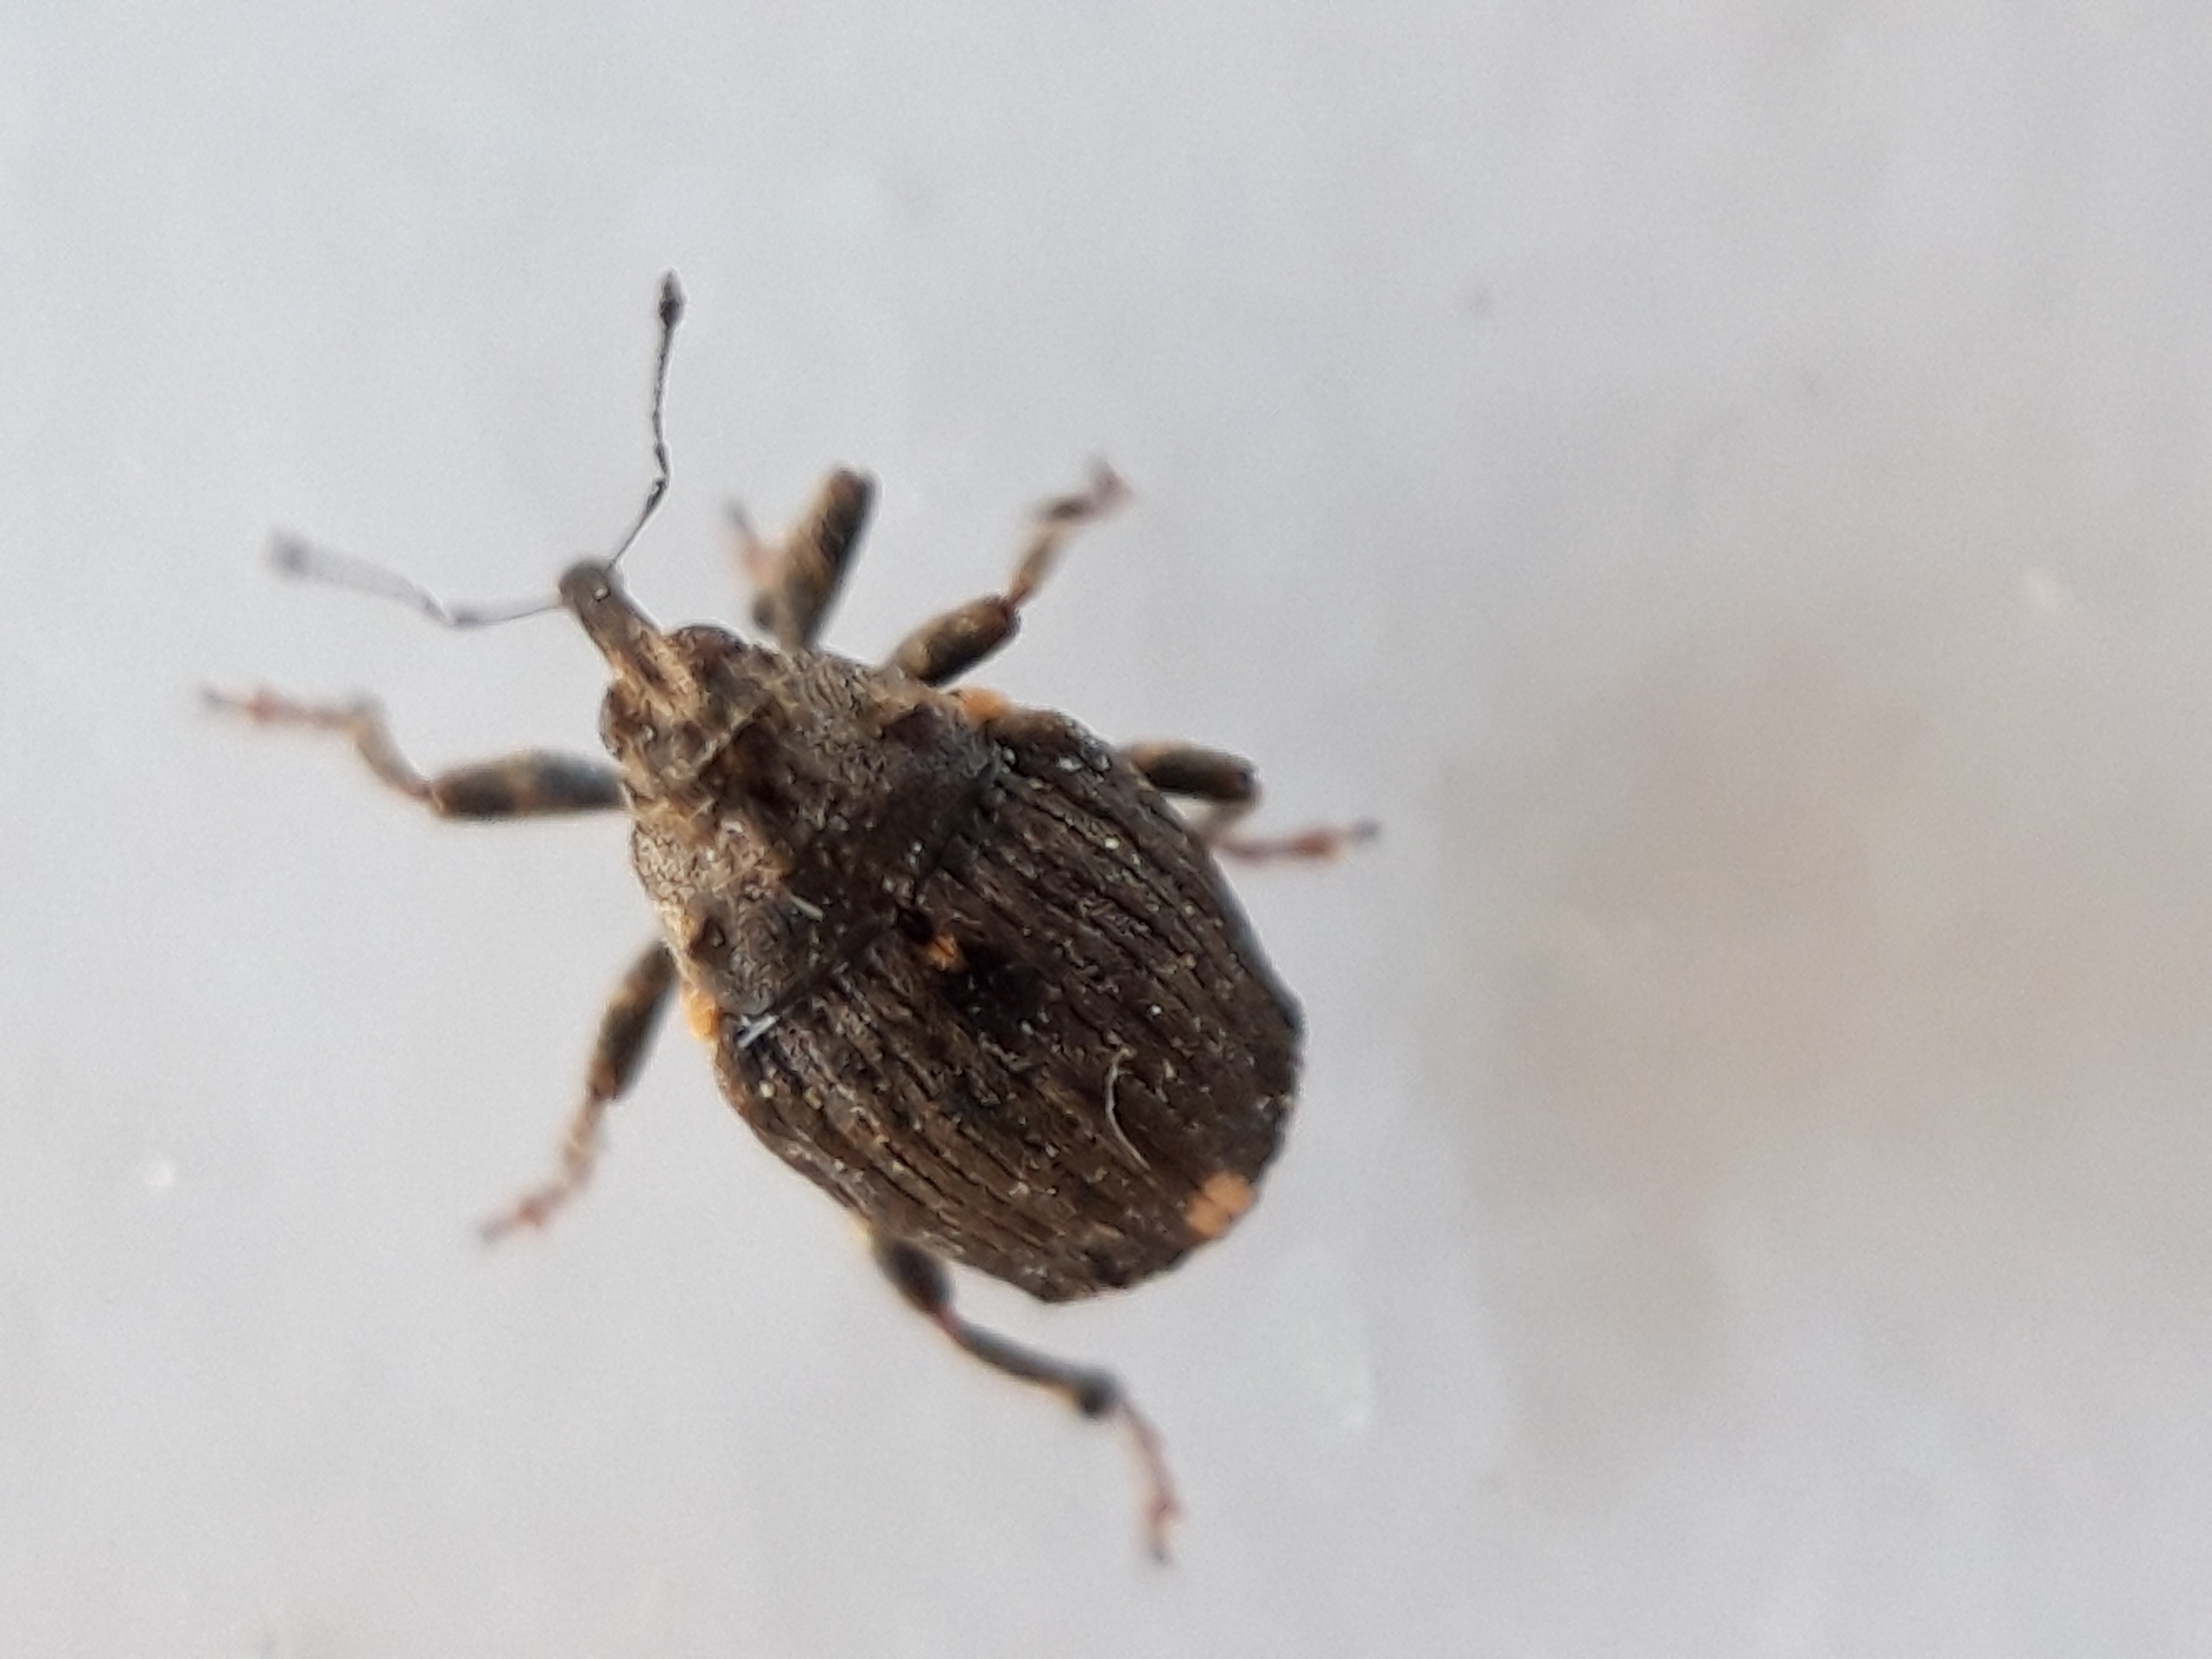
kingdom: Animalia
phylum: Arthropoda
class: Insecta
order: Coleoptera
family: Curculionidae
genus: Stenocarus
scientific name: Stenocarus cardui
